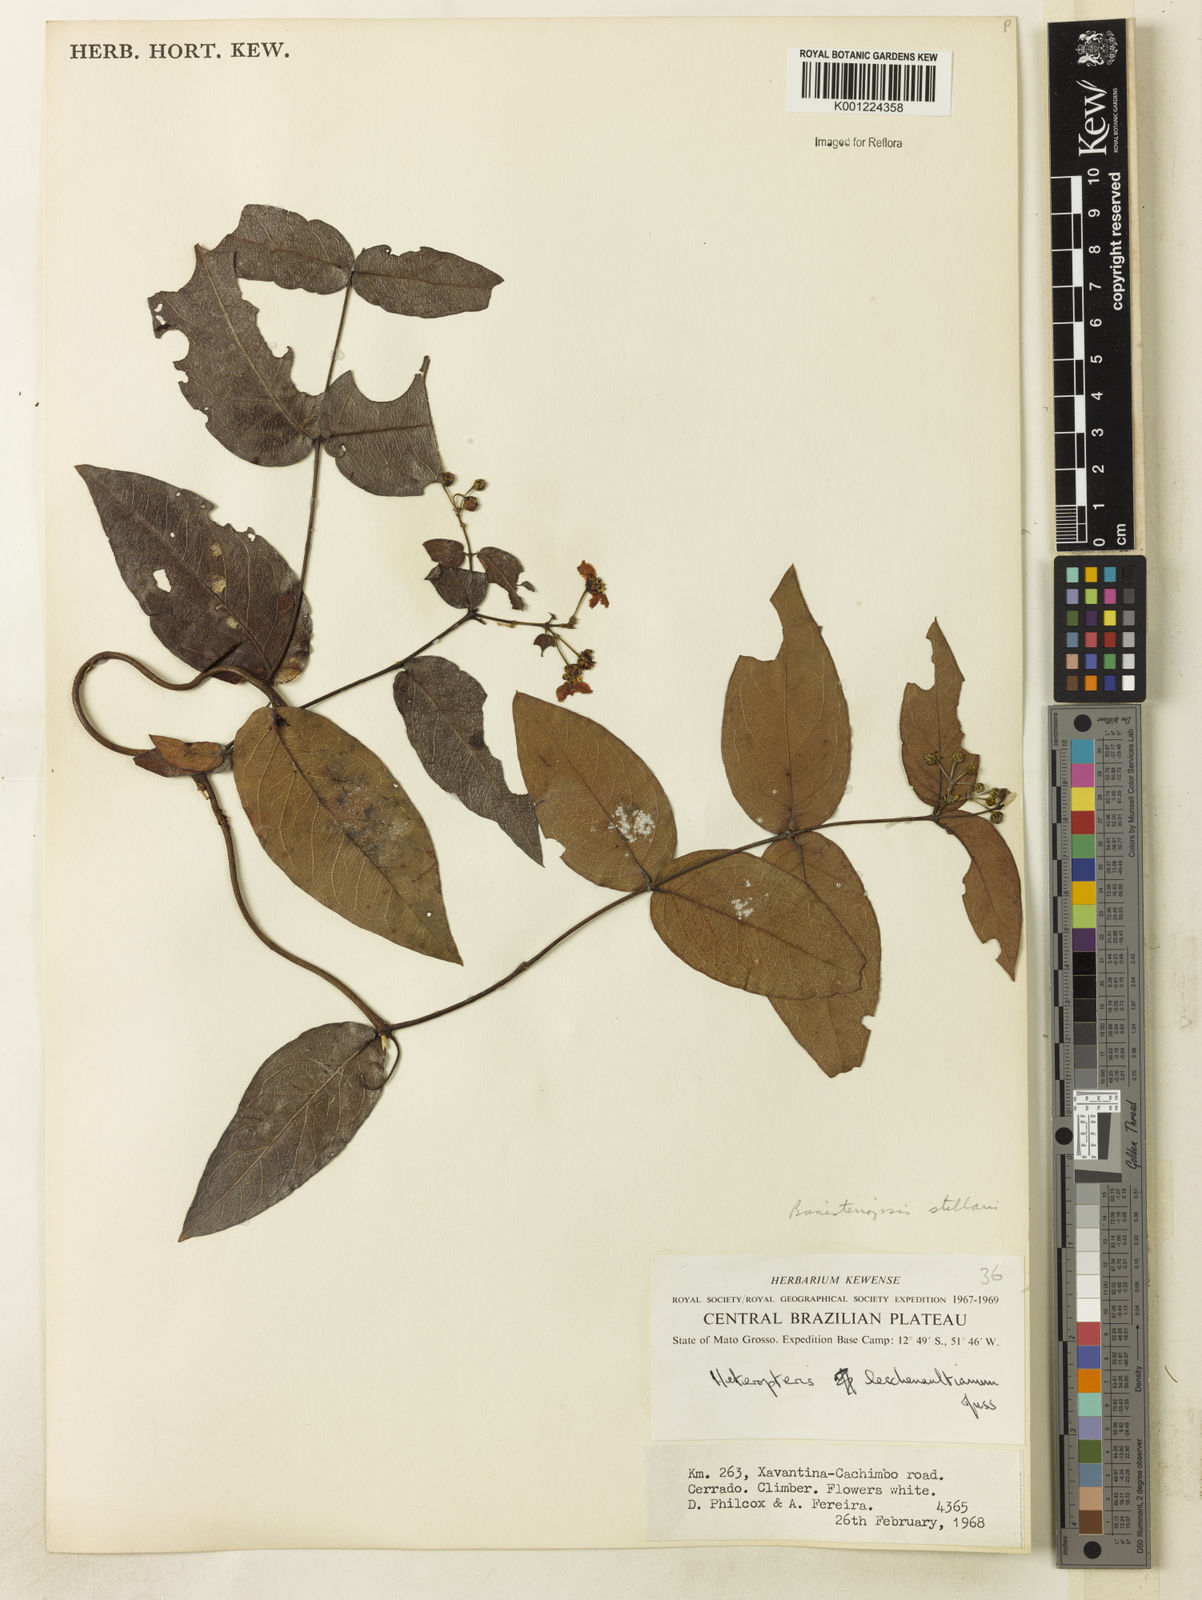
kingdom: Plantae
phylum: Tracheophyta
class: Magnoliopsida
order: Malpighiales
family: Malpighiaceae
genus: Banisteriopsis
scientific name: Banisteriopsis stellaris
